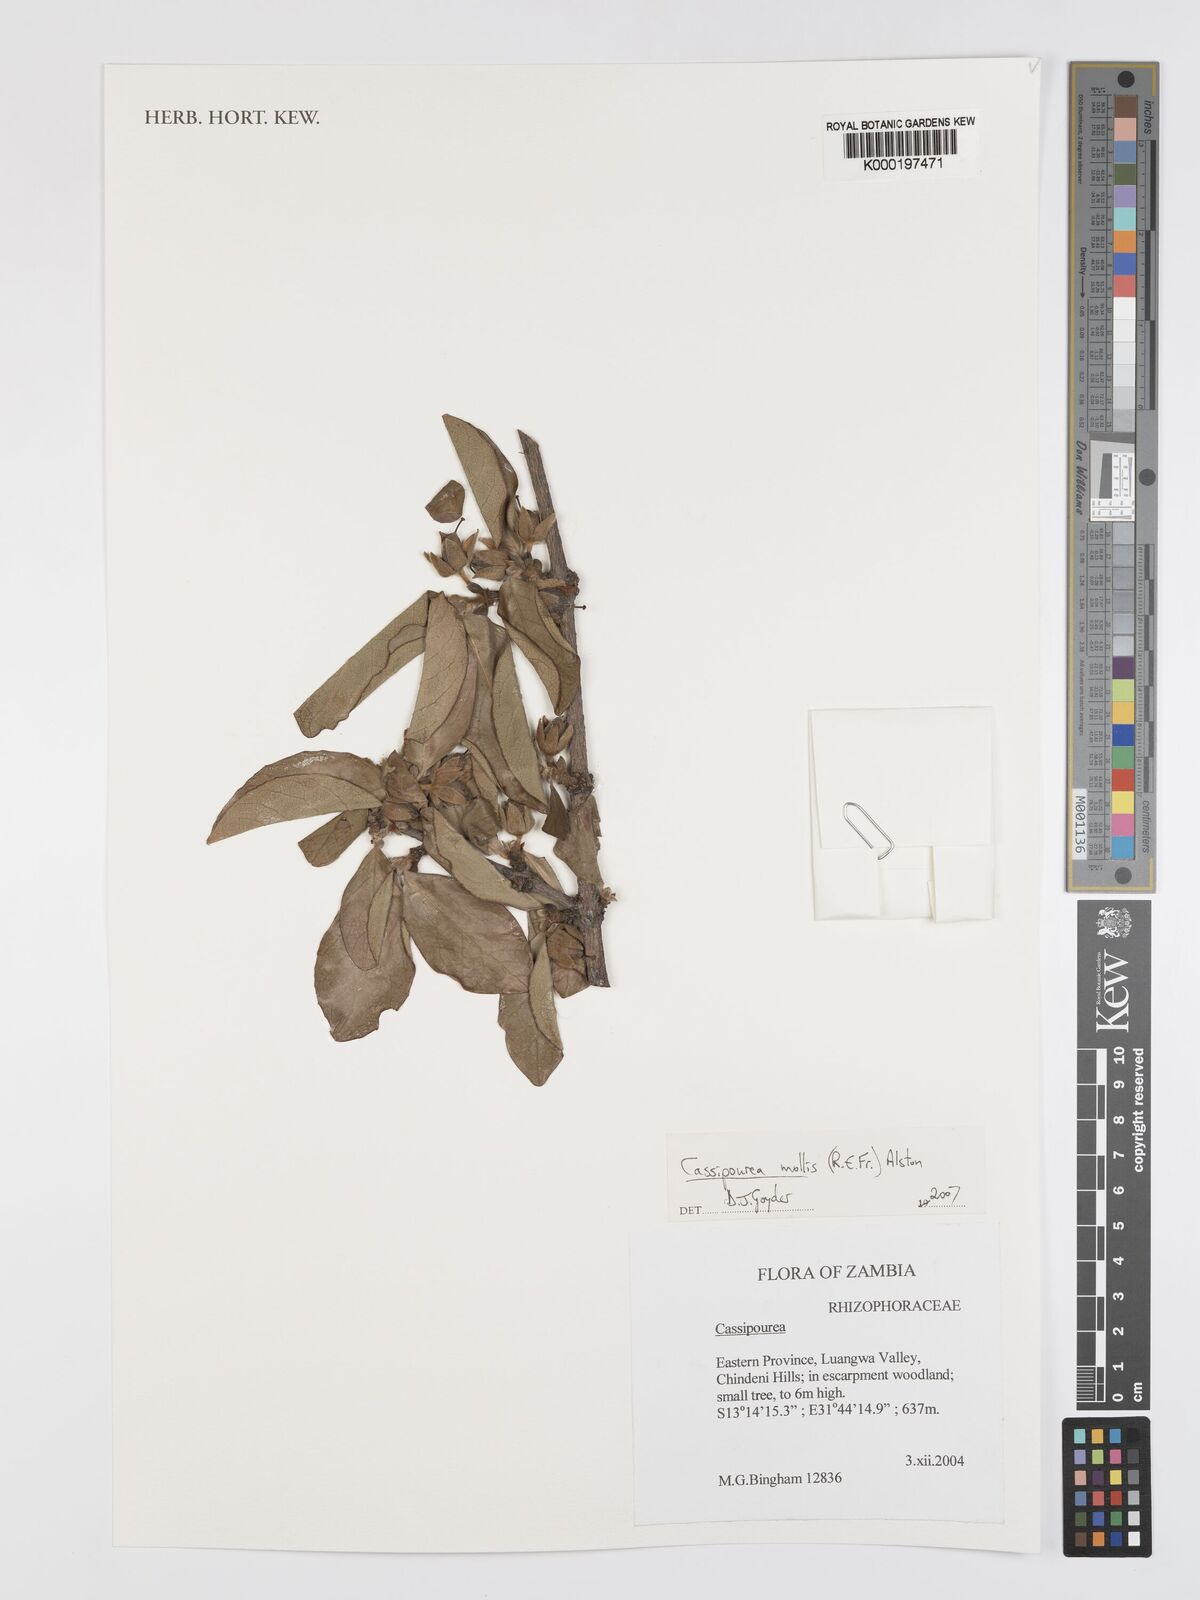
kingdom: Plantae
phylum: Tracheophyta
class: Magnoliopsida
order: Malpighiales
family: Rhizophoraceae
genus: Cassipourea
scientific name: Cassipourea mollis
